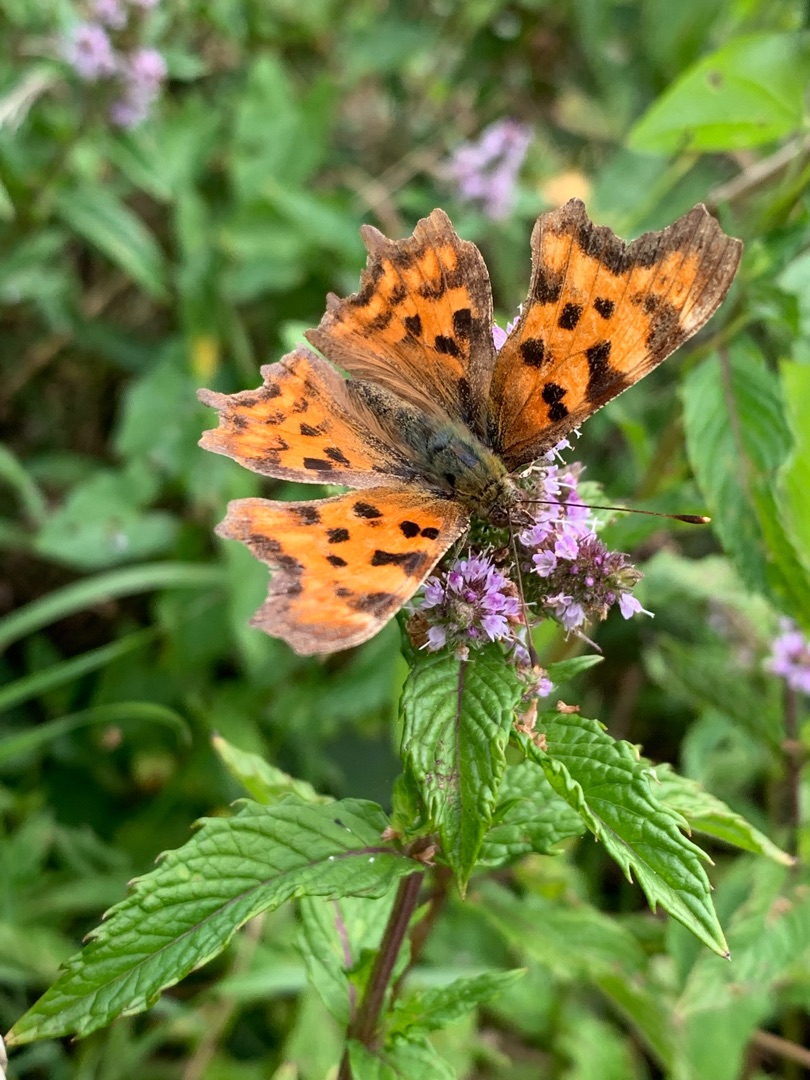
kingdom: Animalia
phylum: Arthropoda
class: Insecta
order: Lepidoptera
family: Nymphalidae
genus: Polygonia
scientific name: Polygonia c-album
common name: Det hvide C
